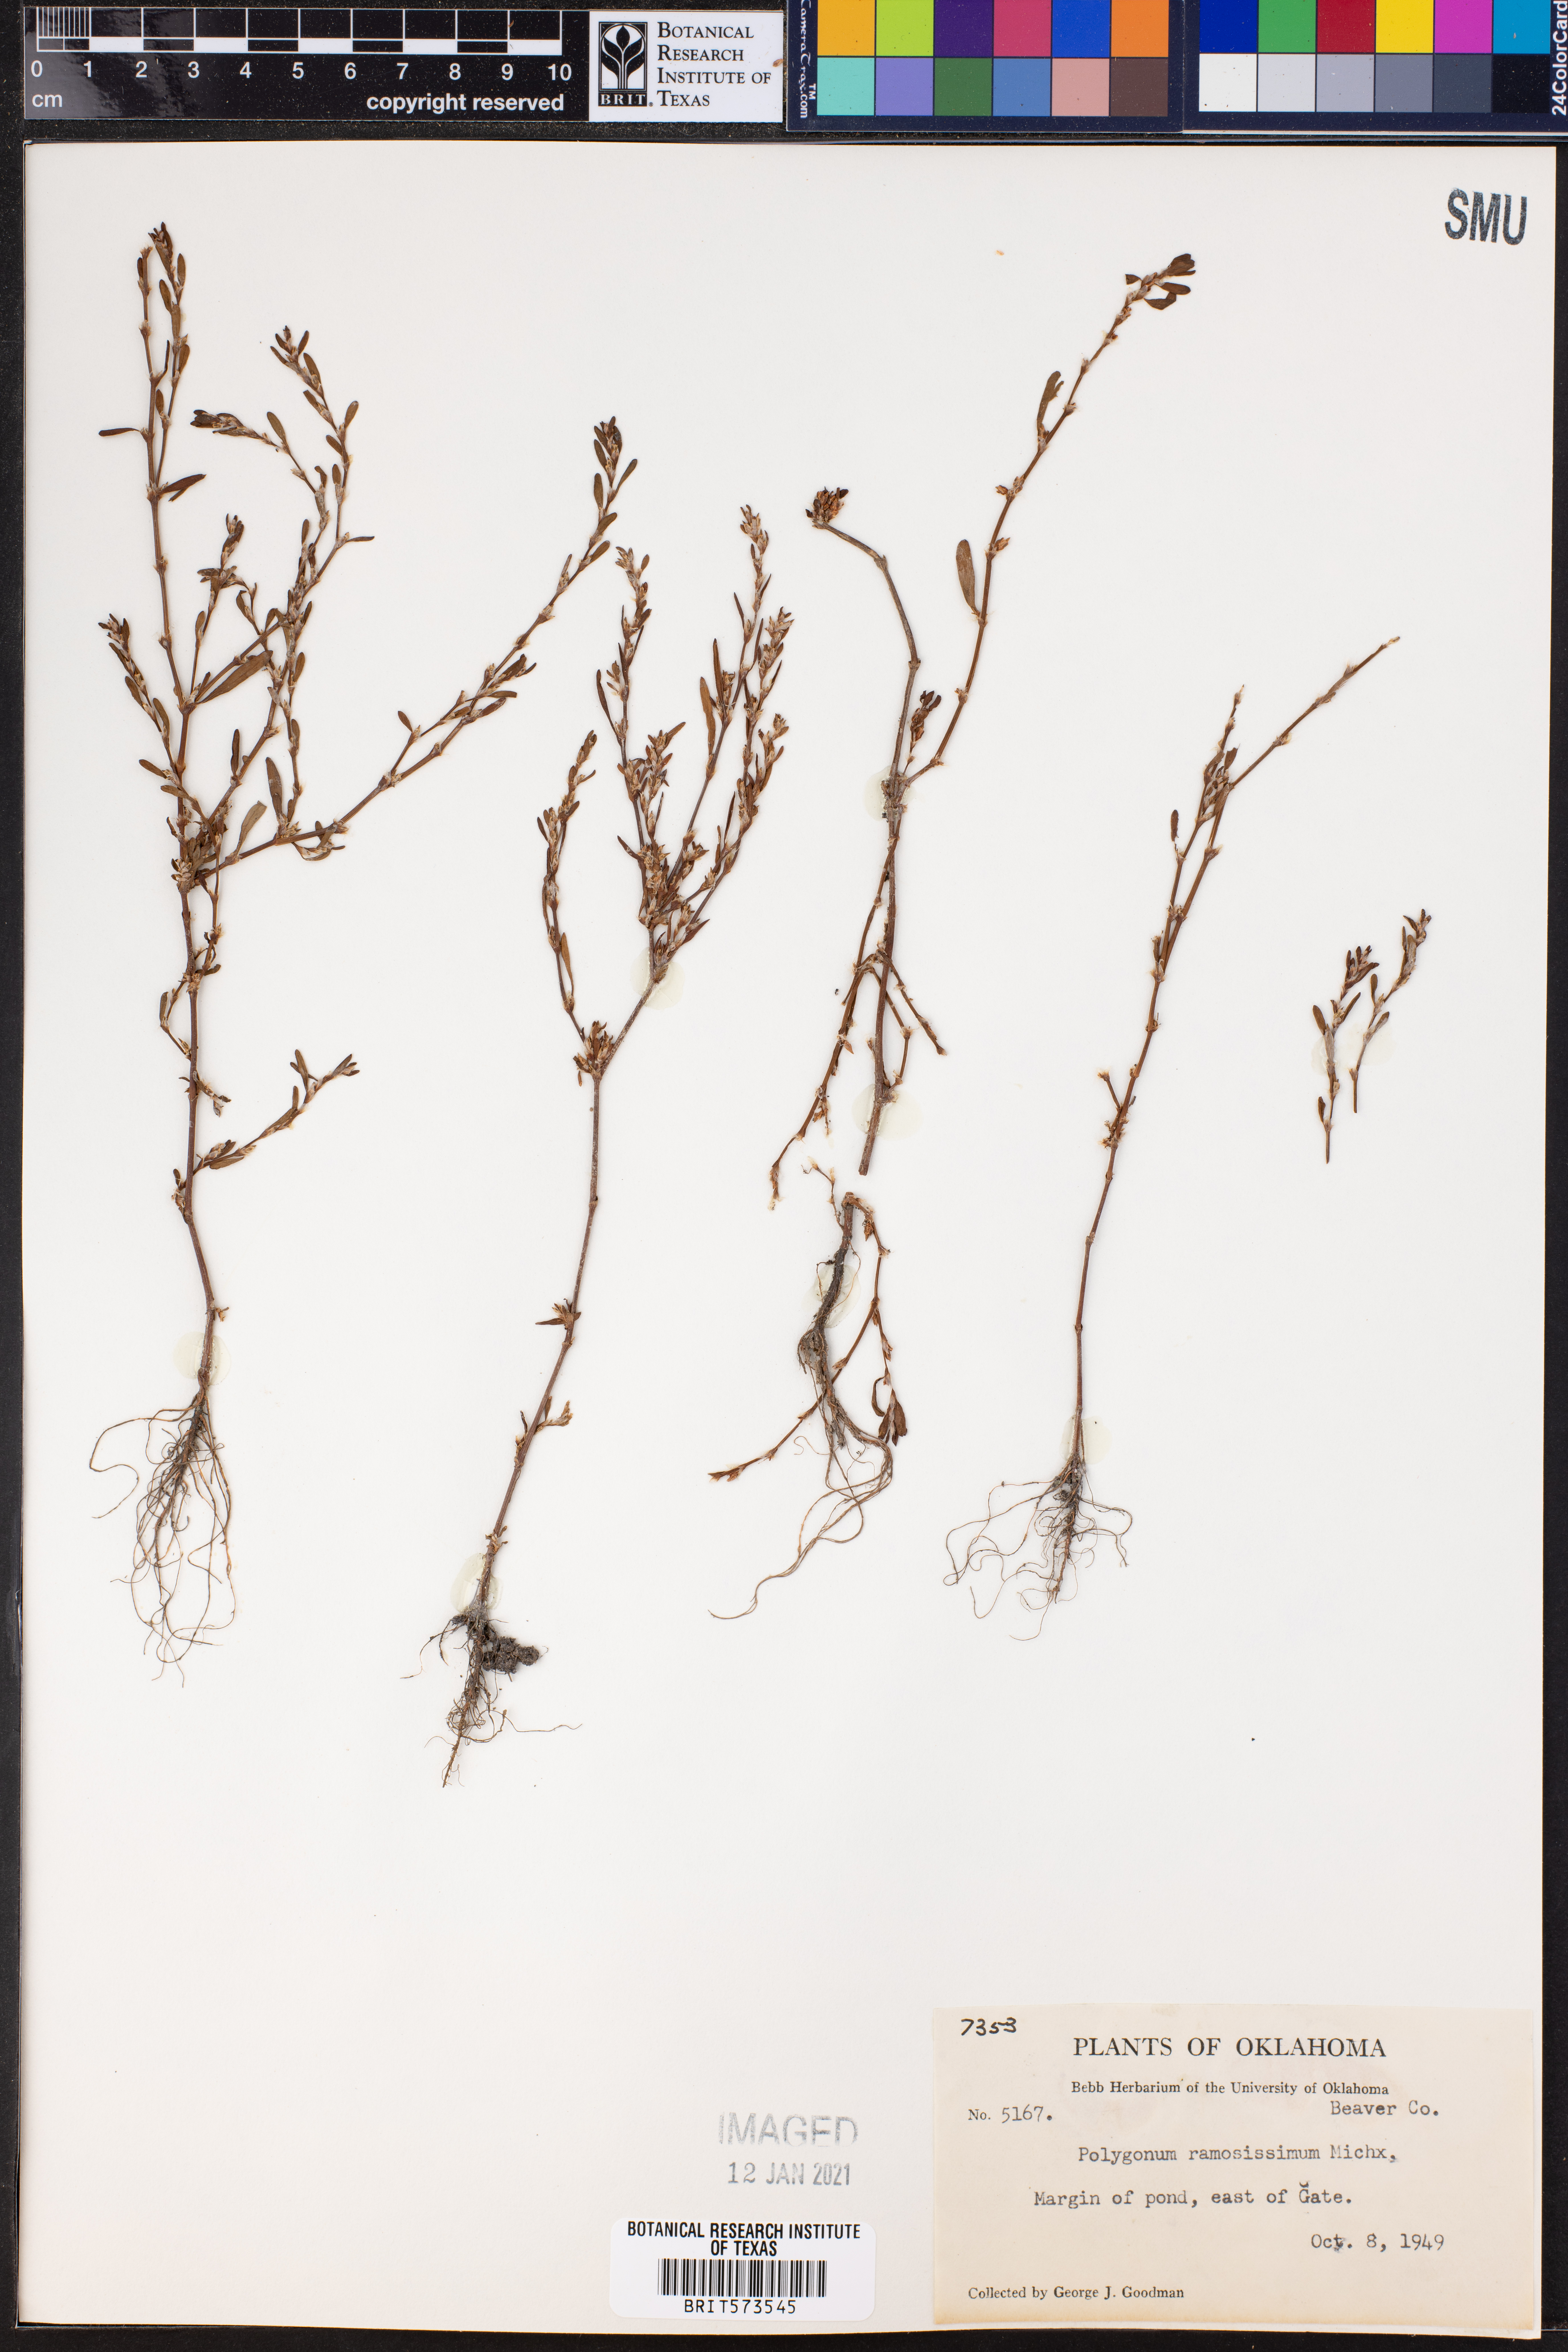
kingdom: Plantae
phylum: Tracheophyta
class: Magnoliopsida
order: Caryophyllales
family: Polygonaceae
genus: Polygonum
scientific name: Polygonum ramosissimum
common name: Bushy knotweed
